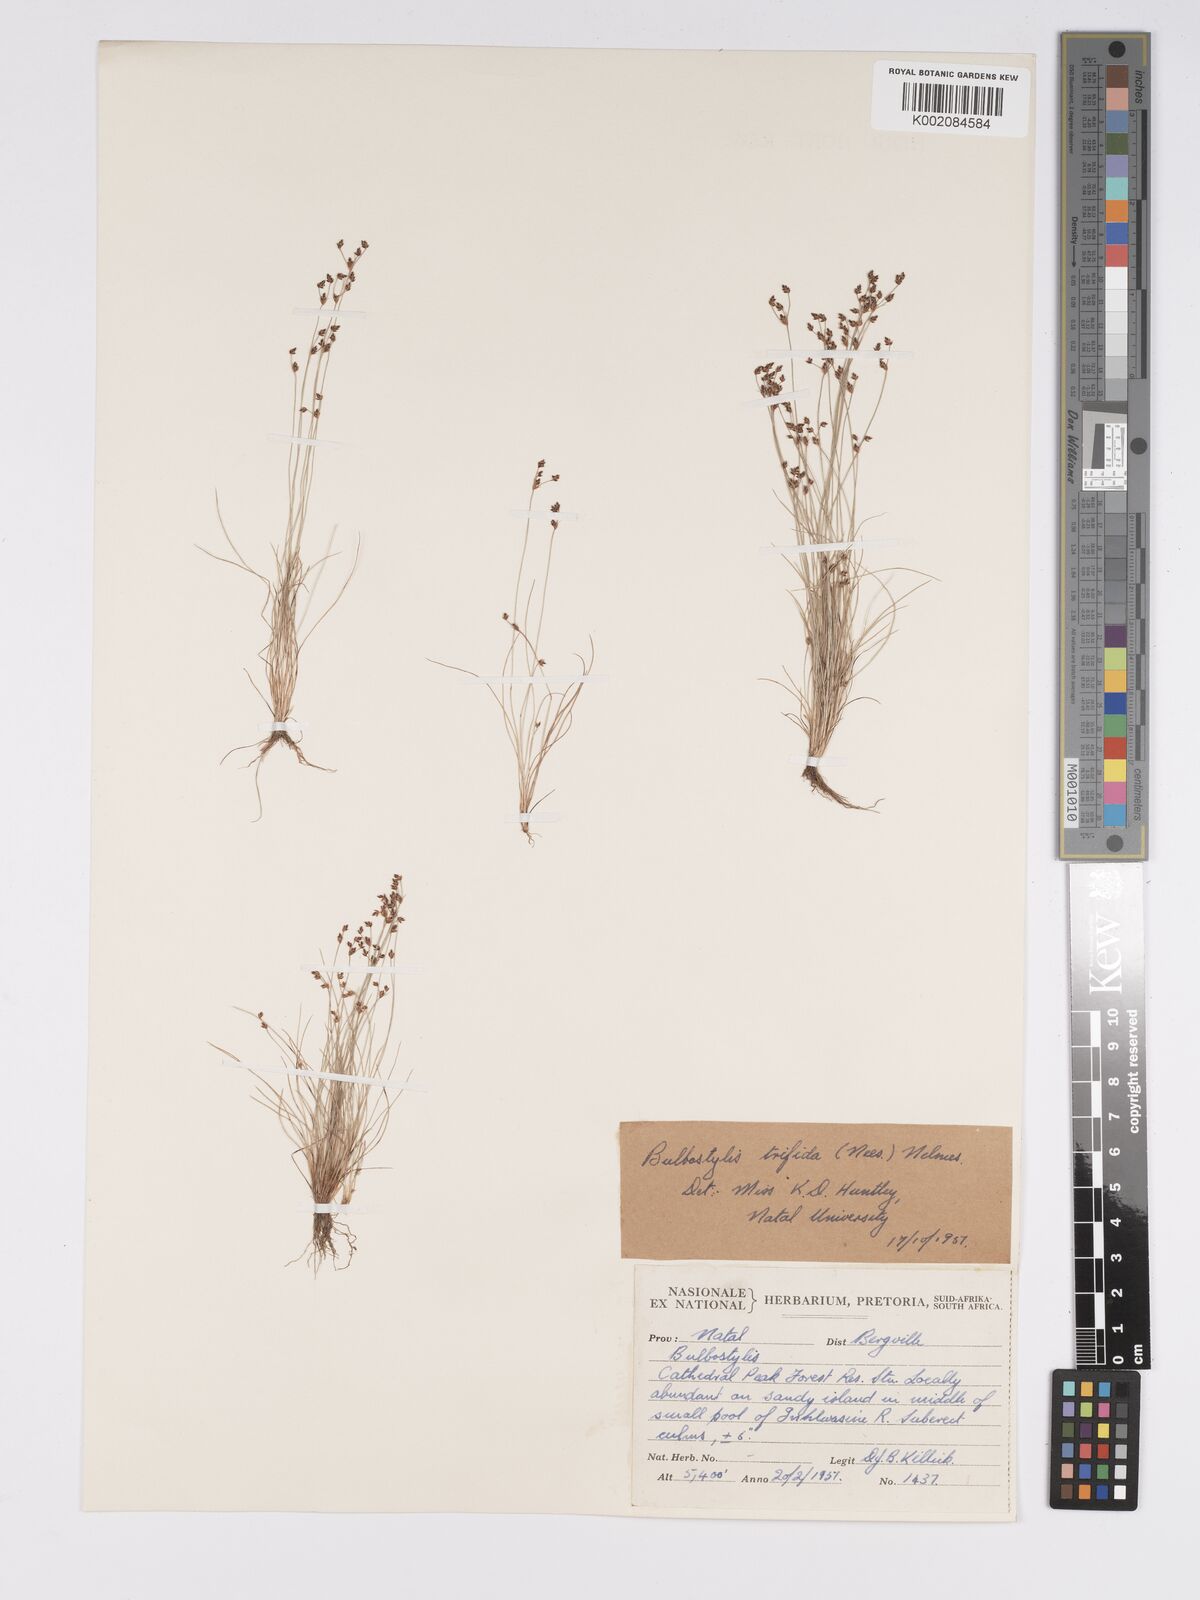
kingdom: Plantae
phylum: Tracheophyta
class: Liliopsida
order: Poales
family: Cyperaceae
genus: Bulbostylis
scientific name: Bulbostylis capillaris
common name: Densetuft hairsedge
